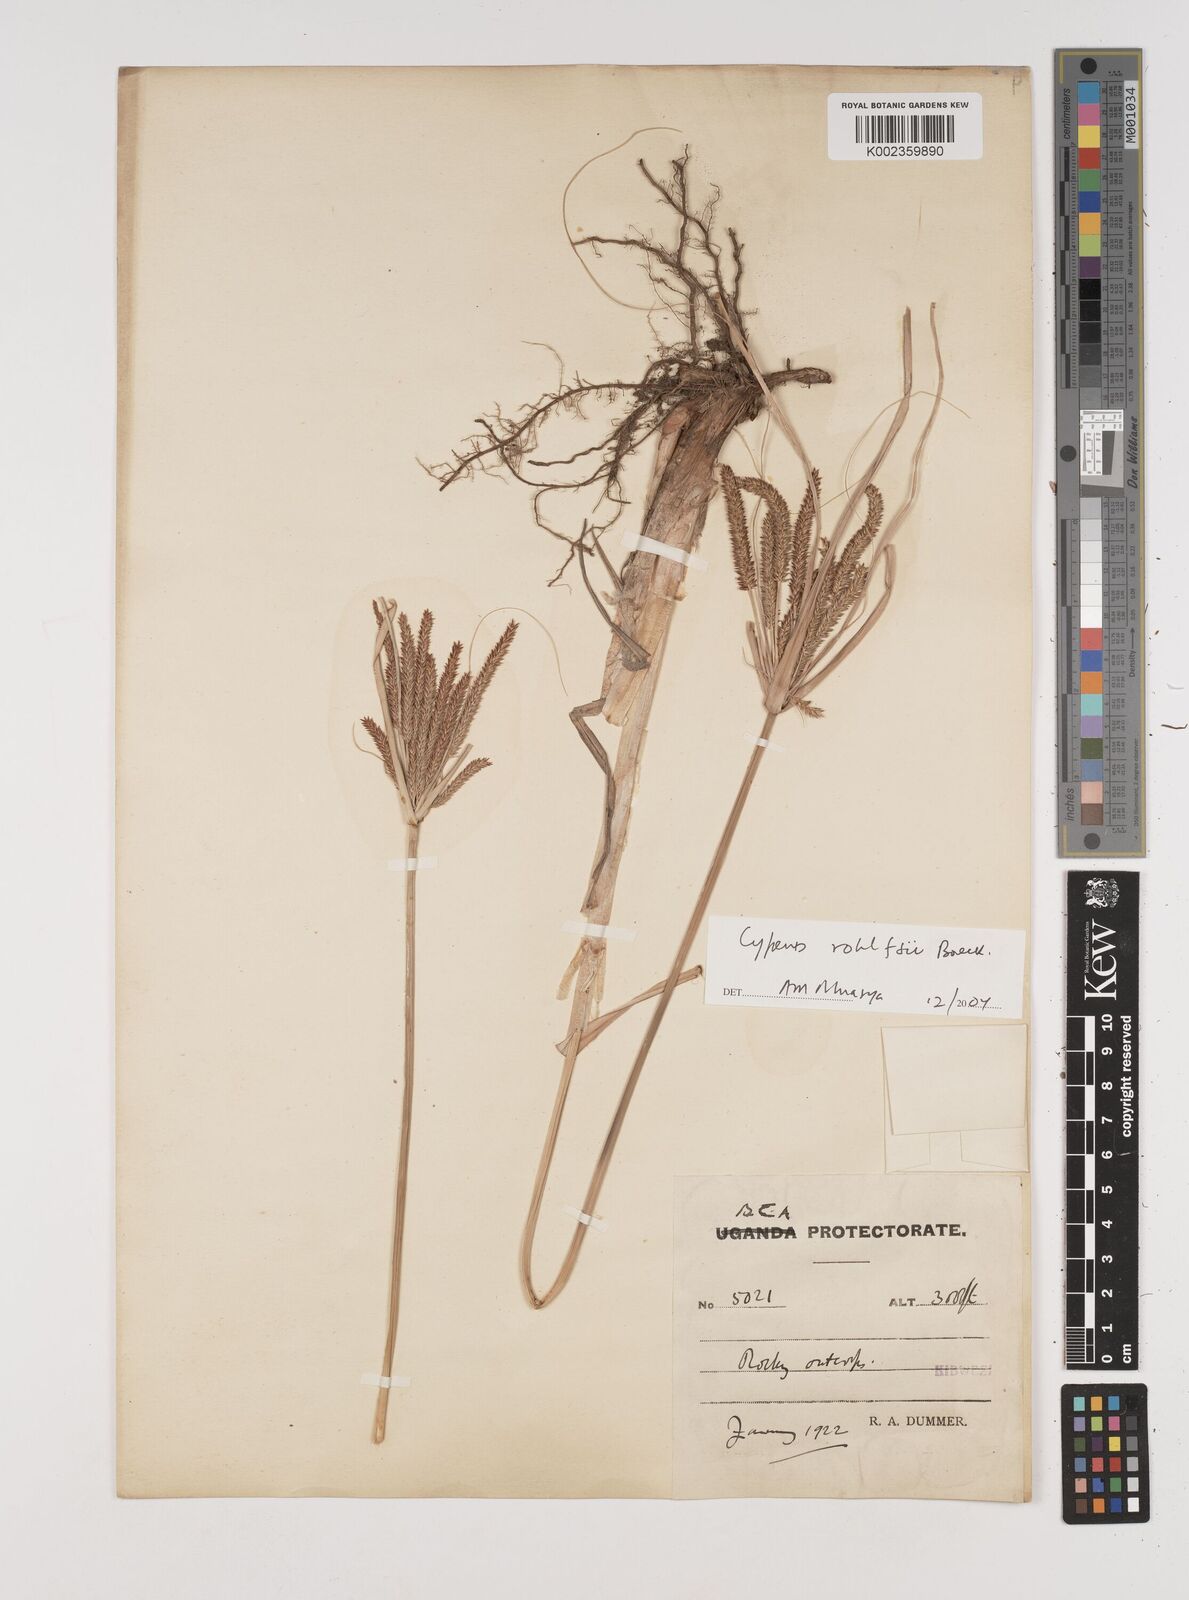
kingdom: Plantae
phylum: Tracheophyta
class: Liliopsida
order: Poales
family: Cyperaceae
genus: Cyperus
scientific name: Cyperus rohlfsii
